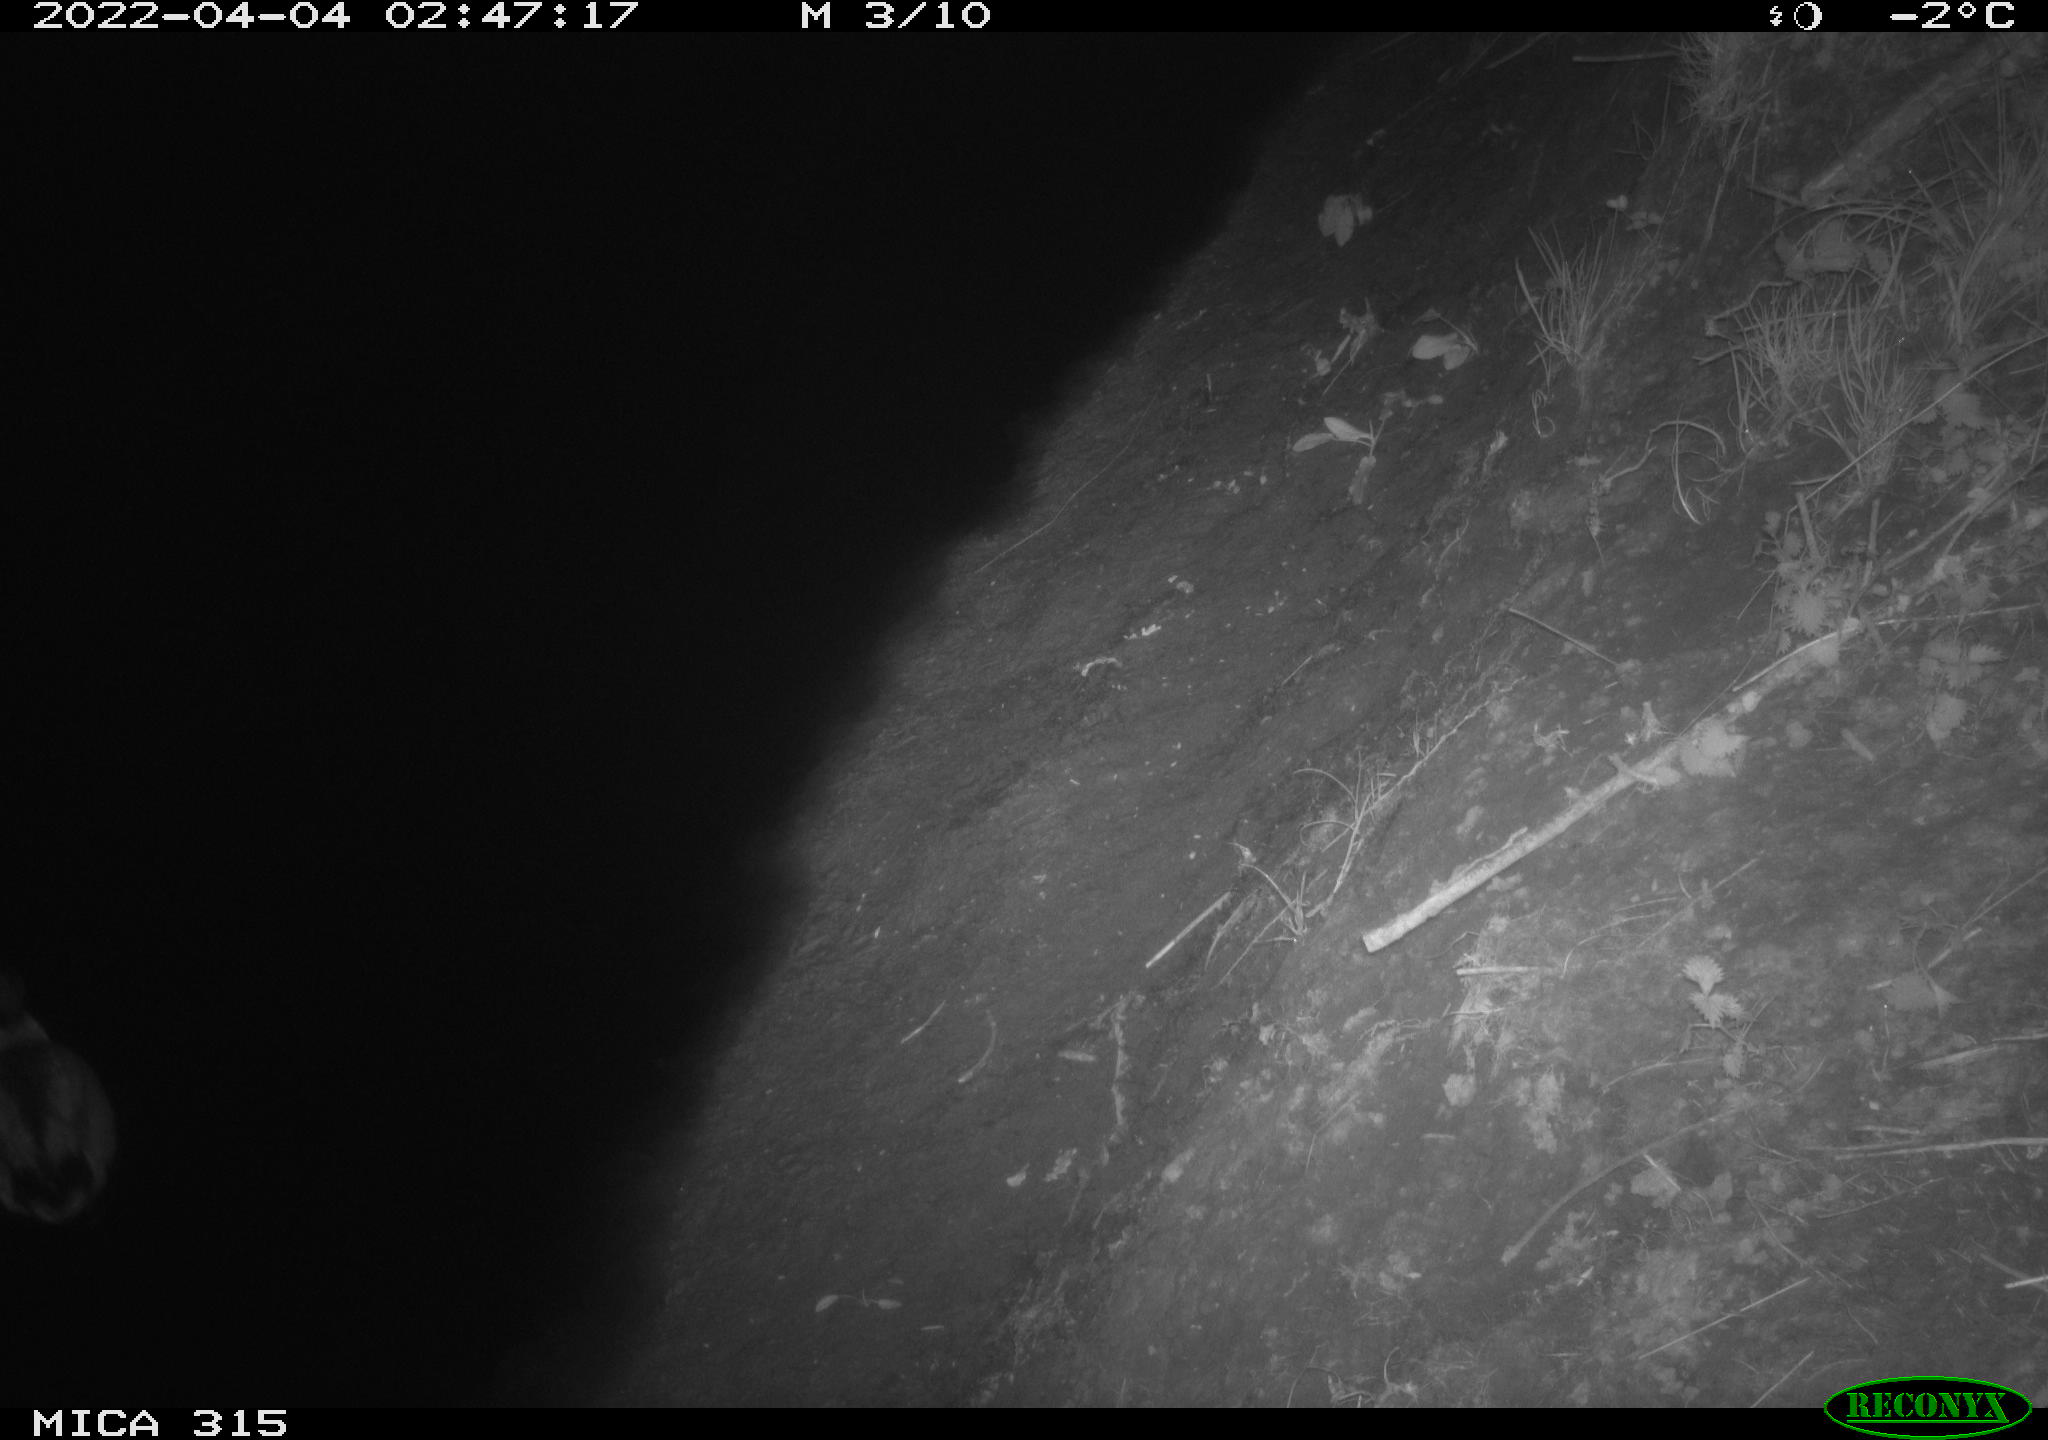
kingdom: Animalia
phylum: Chordata
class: Aves
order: Anseriformes
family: Anatidae
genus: Anas
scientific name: Anas platyrhynchos
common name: Mallard
